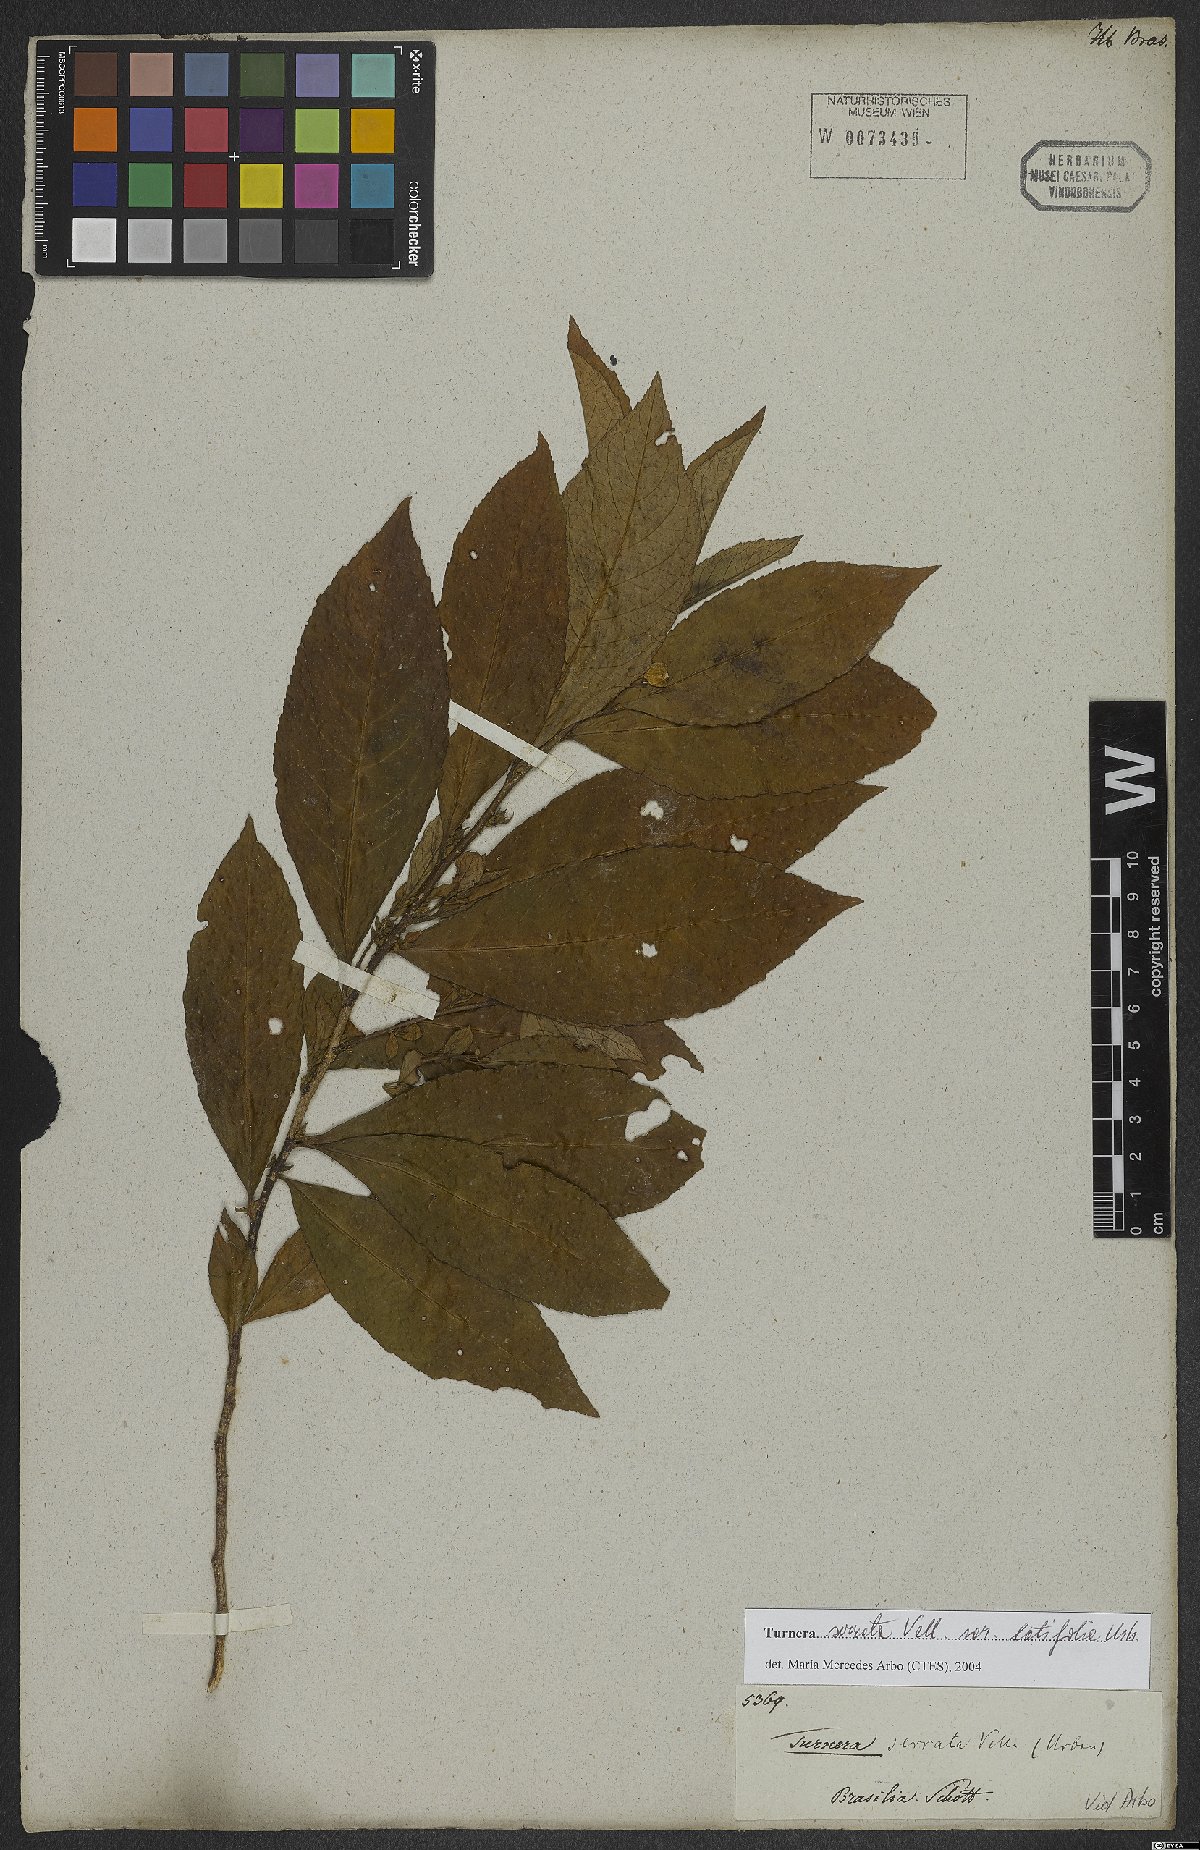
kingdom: Plantae
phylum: Tracheophyta
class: Magnoliopsida
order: Malpighiales
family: Turneraceae
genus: Turnera
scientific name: Turnera serrata
